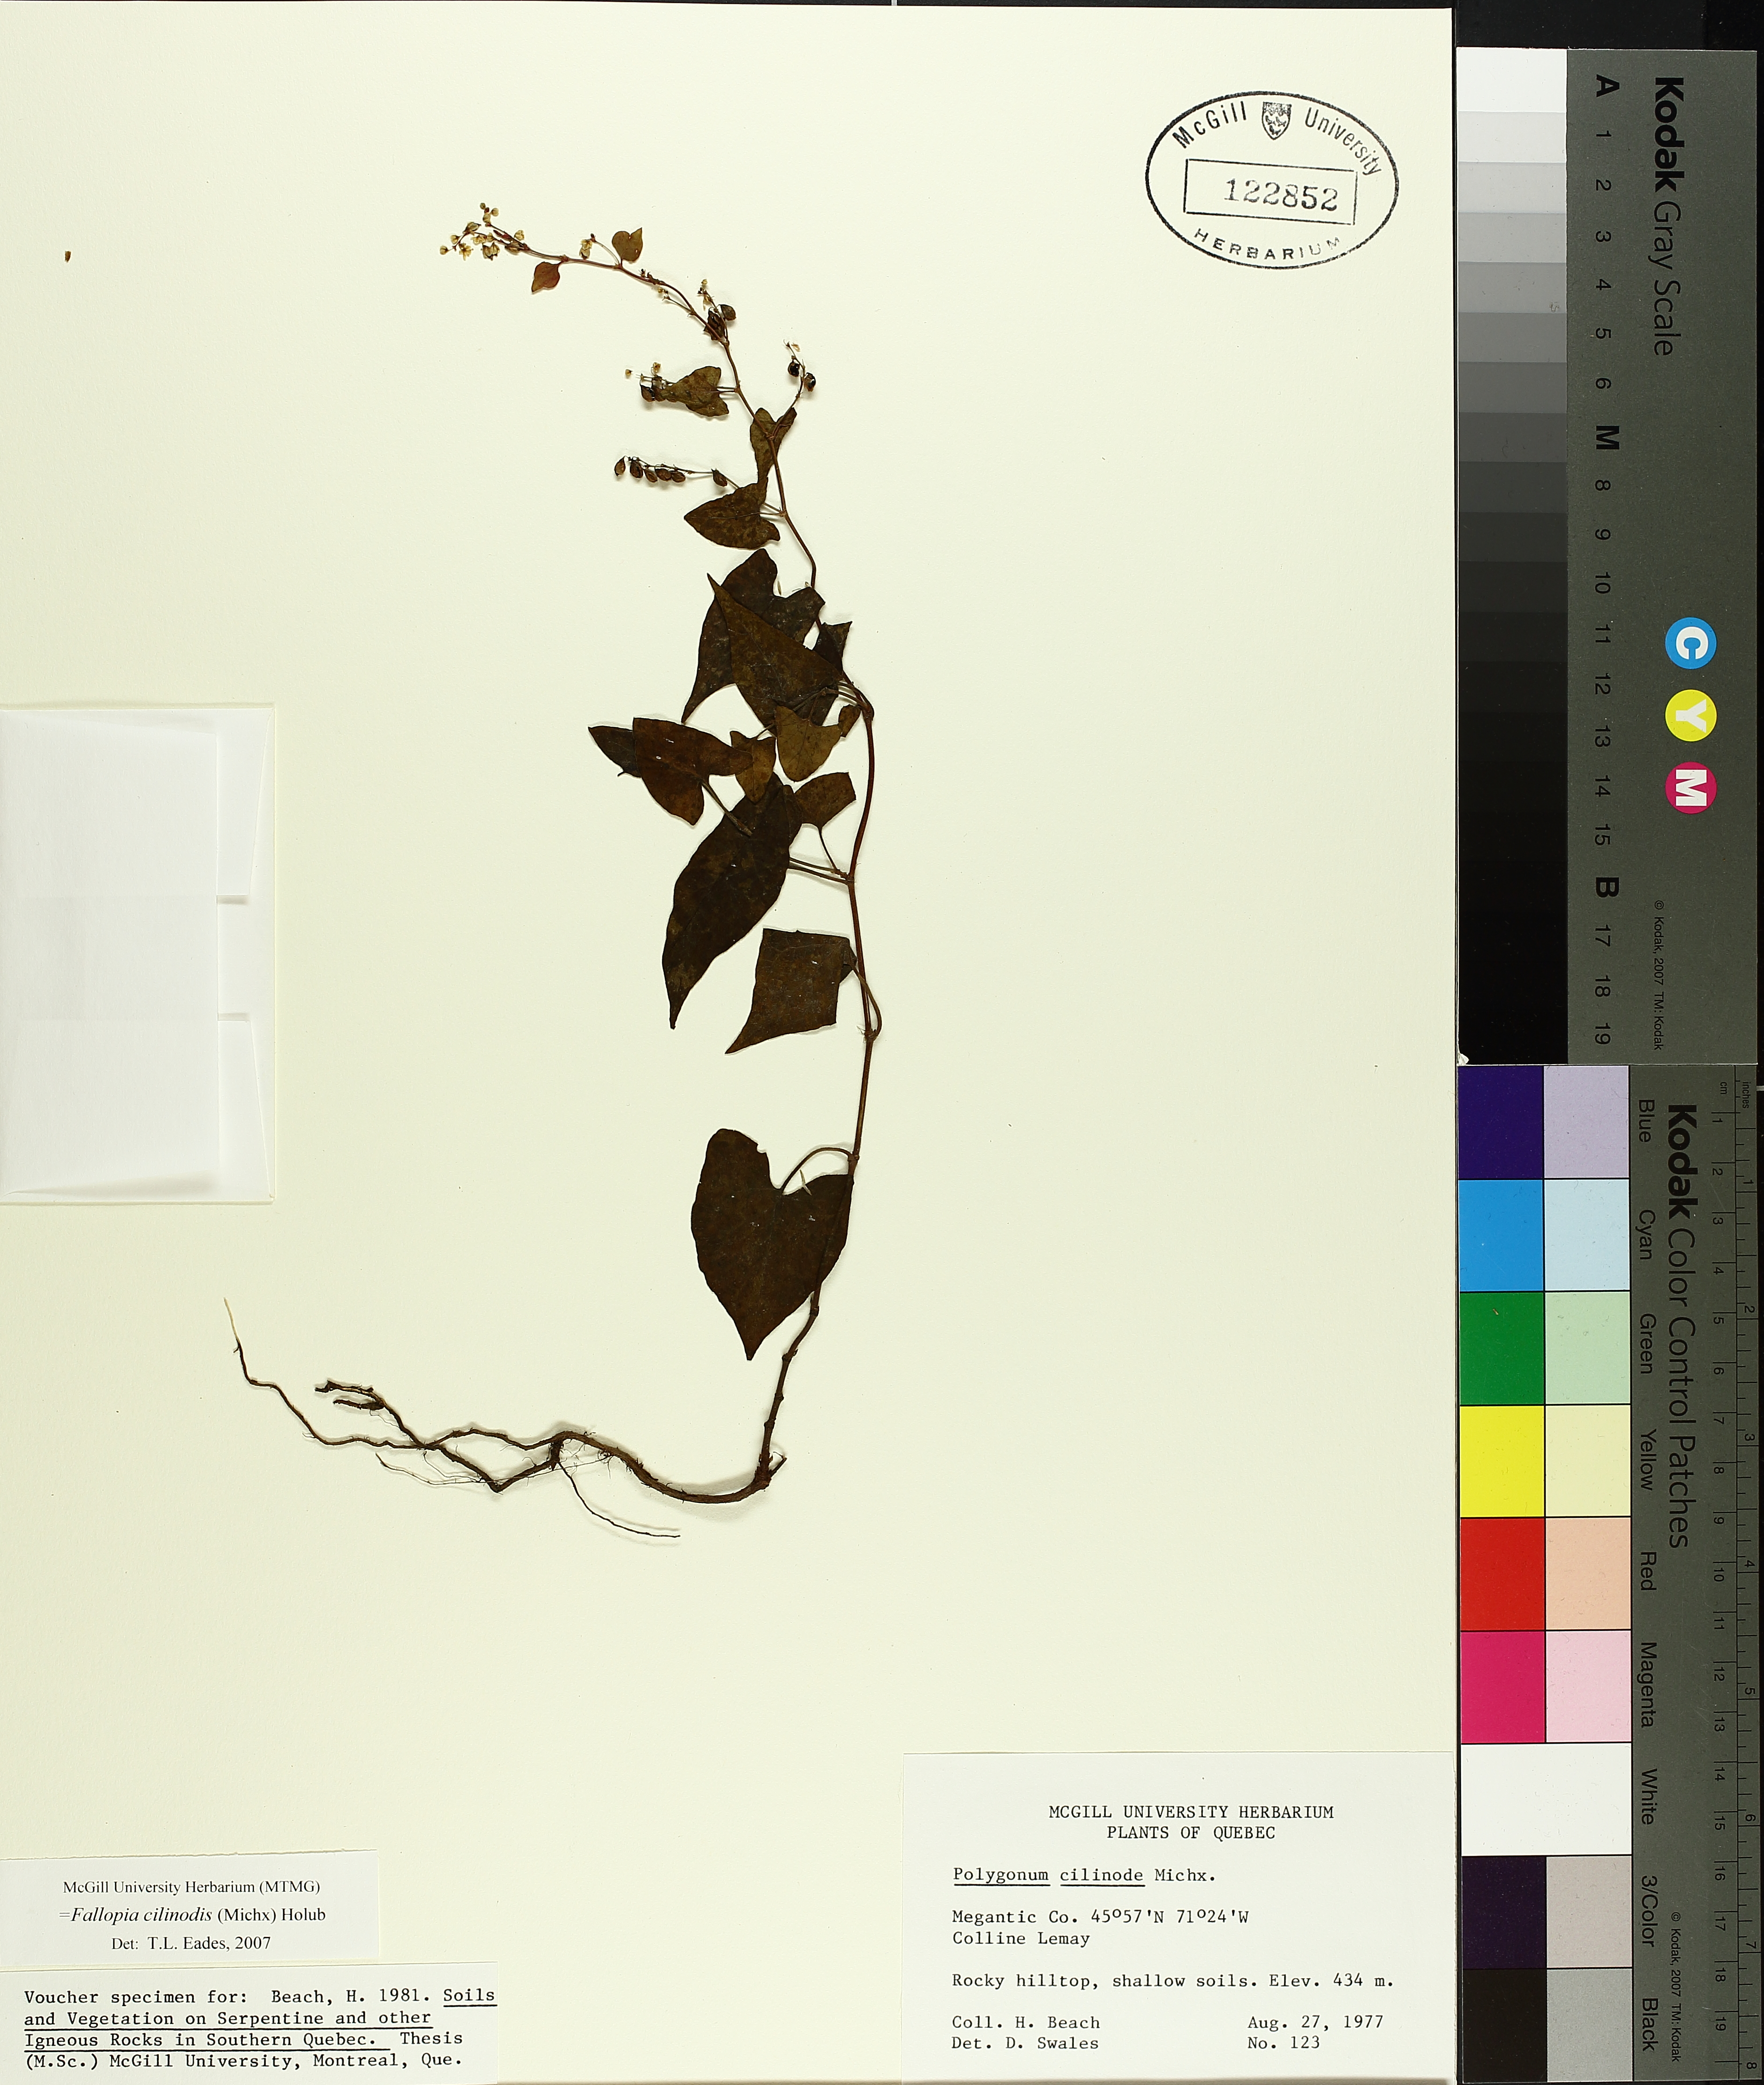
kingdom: Plantae
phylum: Tracheophyta
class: Magnoliopsida
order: Caryophyllales
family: Polygonaceae
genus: Parogonum
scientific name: Parogonum ciliinode
